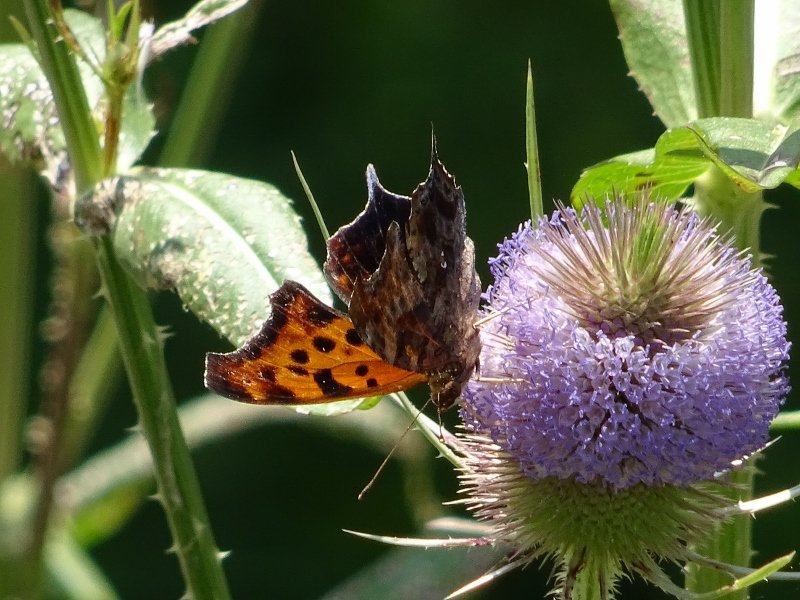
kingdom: Animalia
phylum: Arthropoda
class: Insecta
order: Lepidoptera
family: Nymphalidae
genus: Polygonia
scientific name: Polygonia interrogationis
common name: Question Mark
